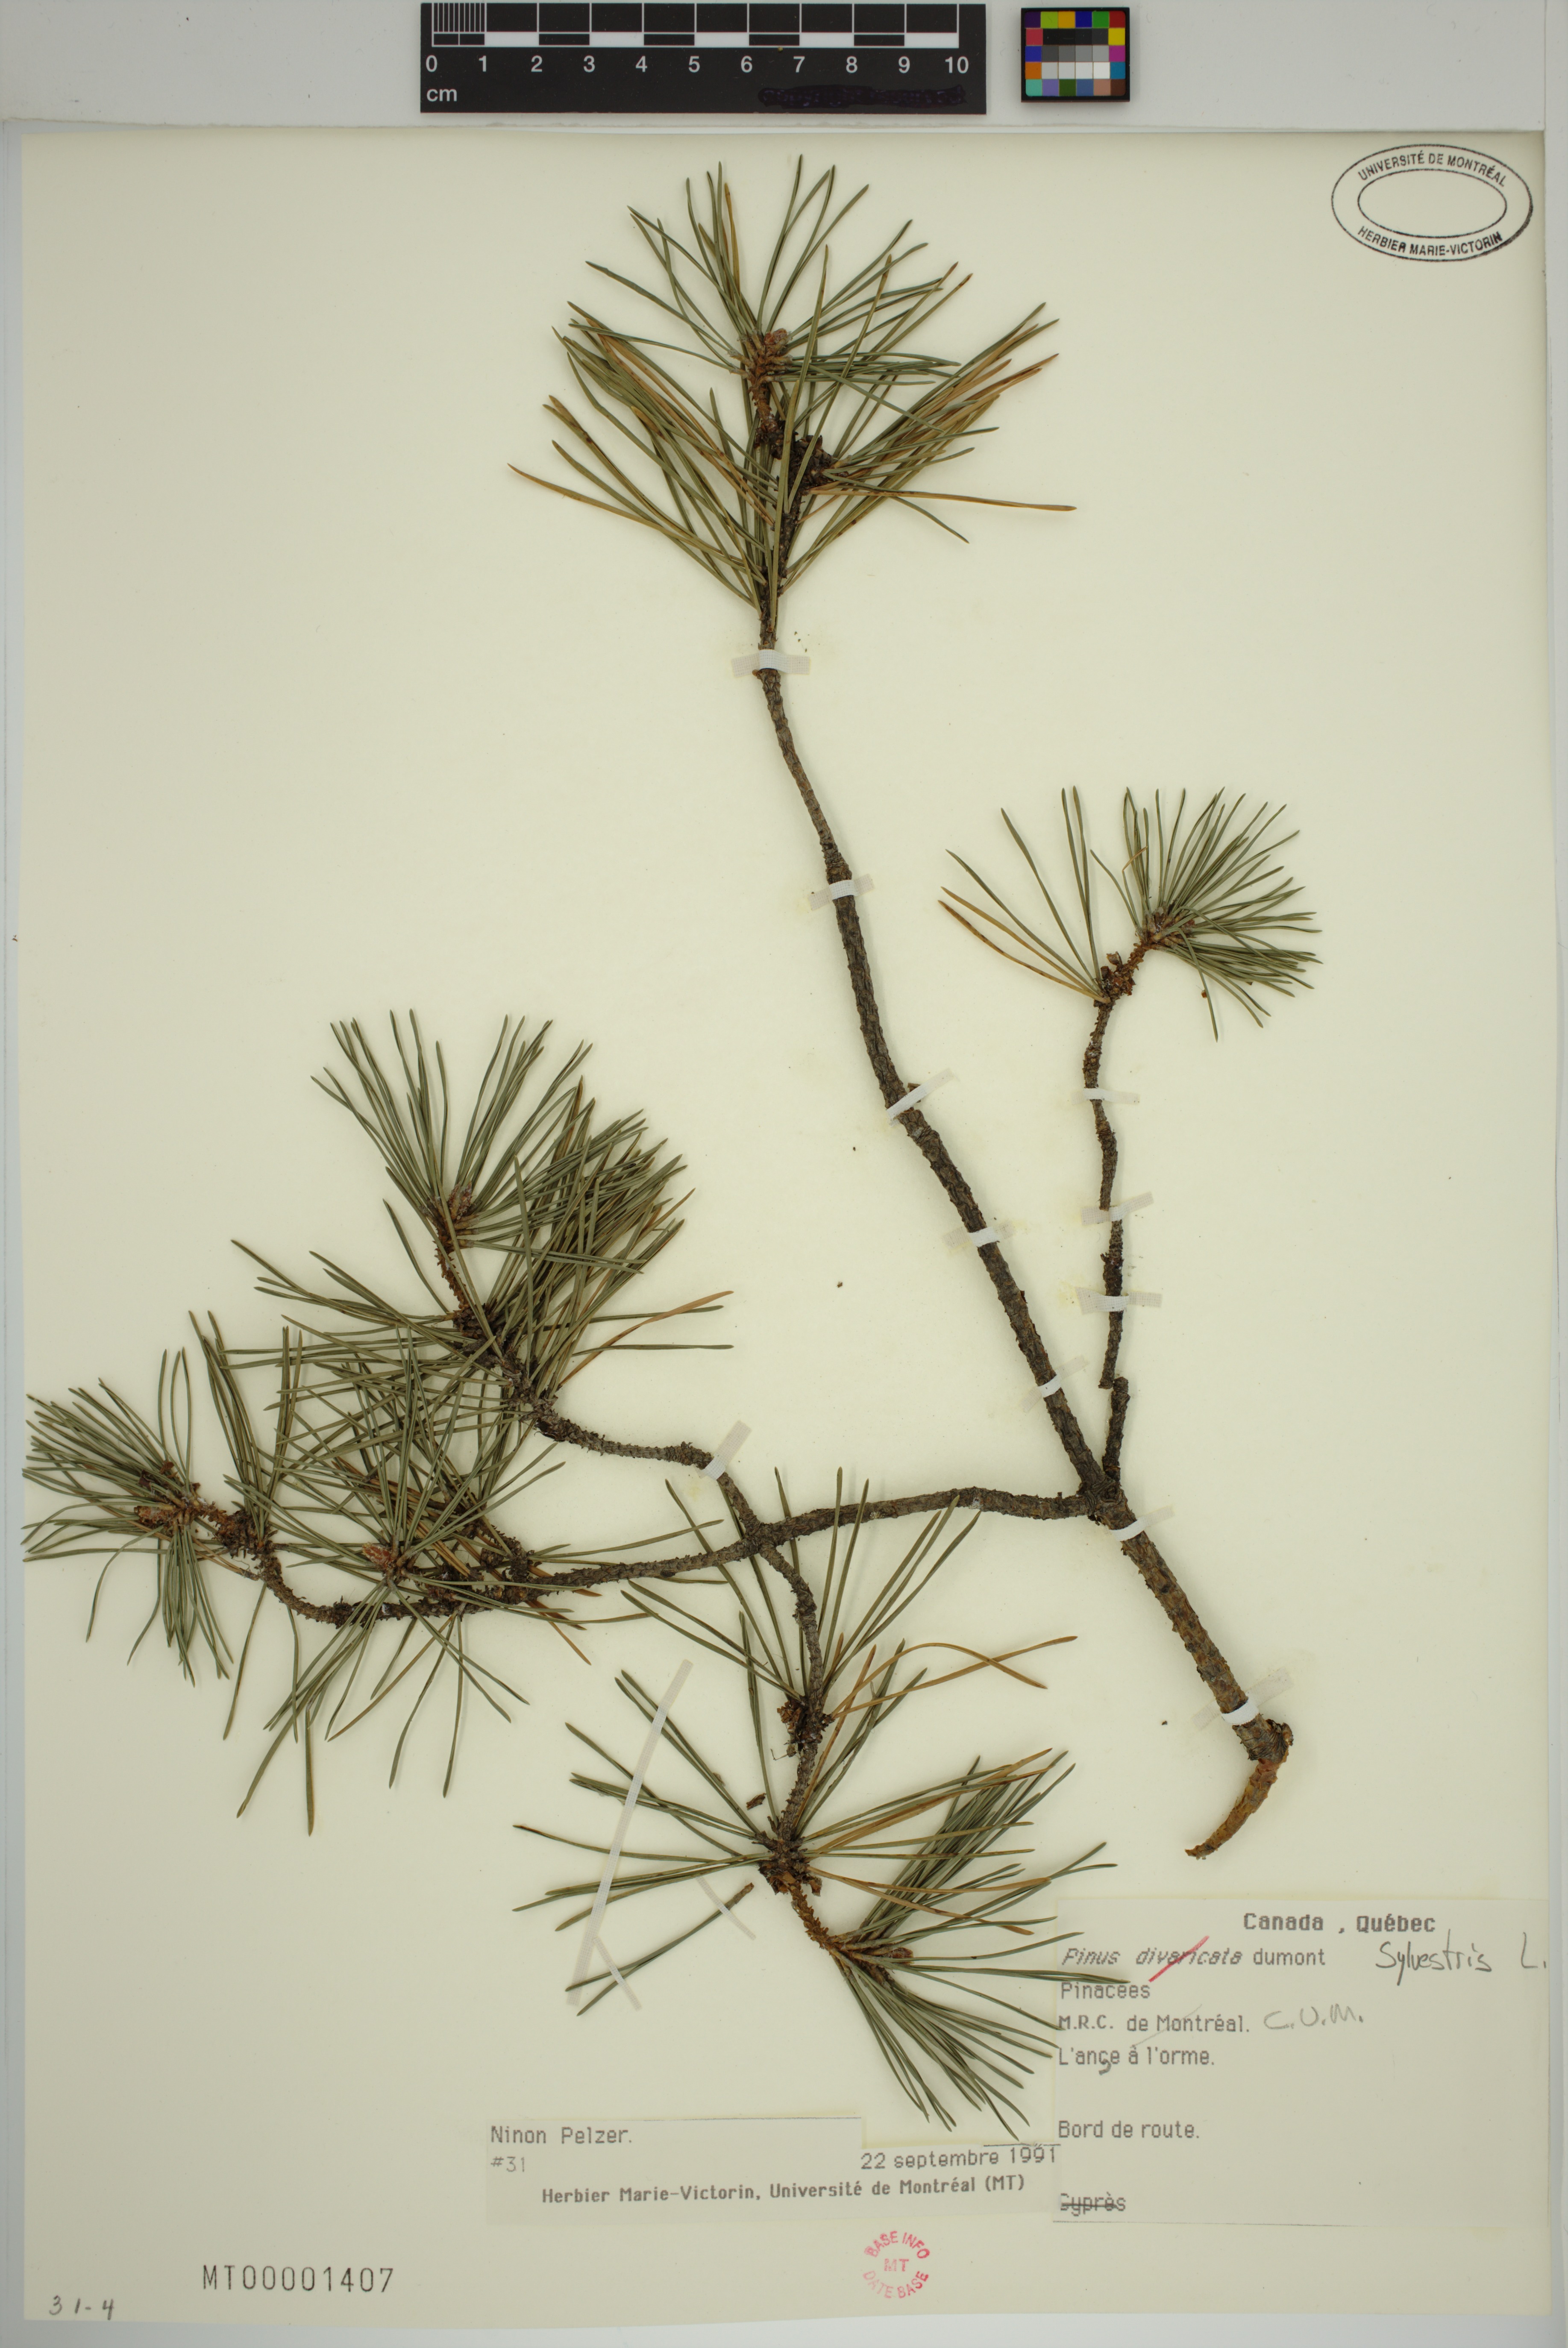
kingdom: Plantae
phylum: Tracheophyta
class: Pinopsida
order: Pinales
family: Pinaceae
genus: Pinus
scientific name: Pinus sylvestris
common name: Scots pine
